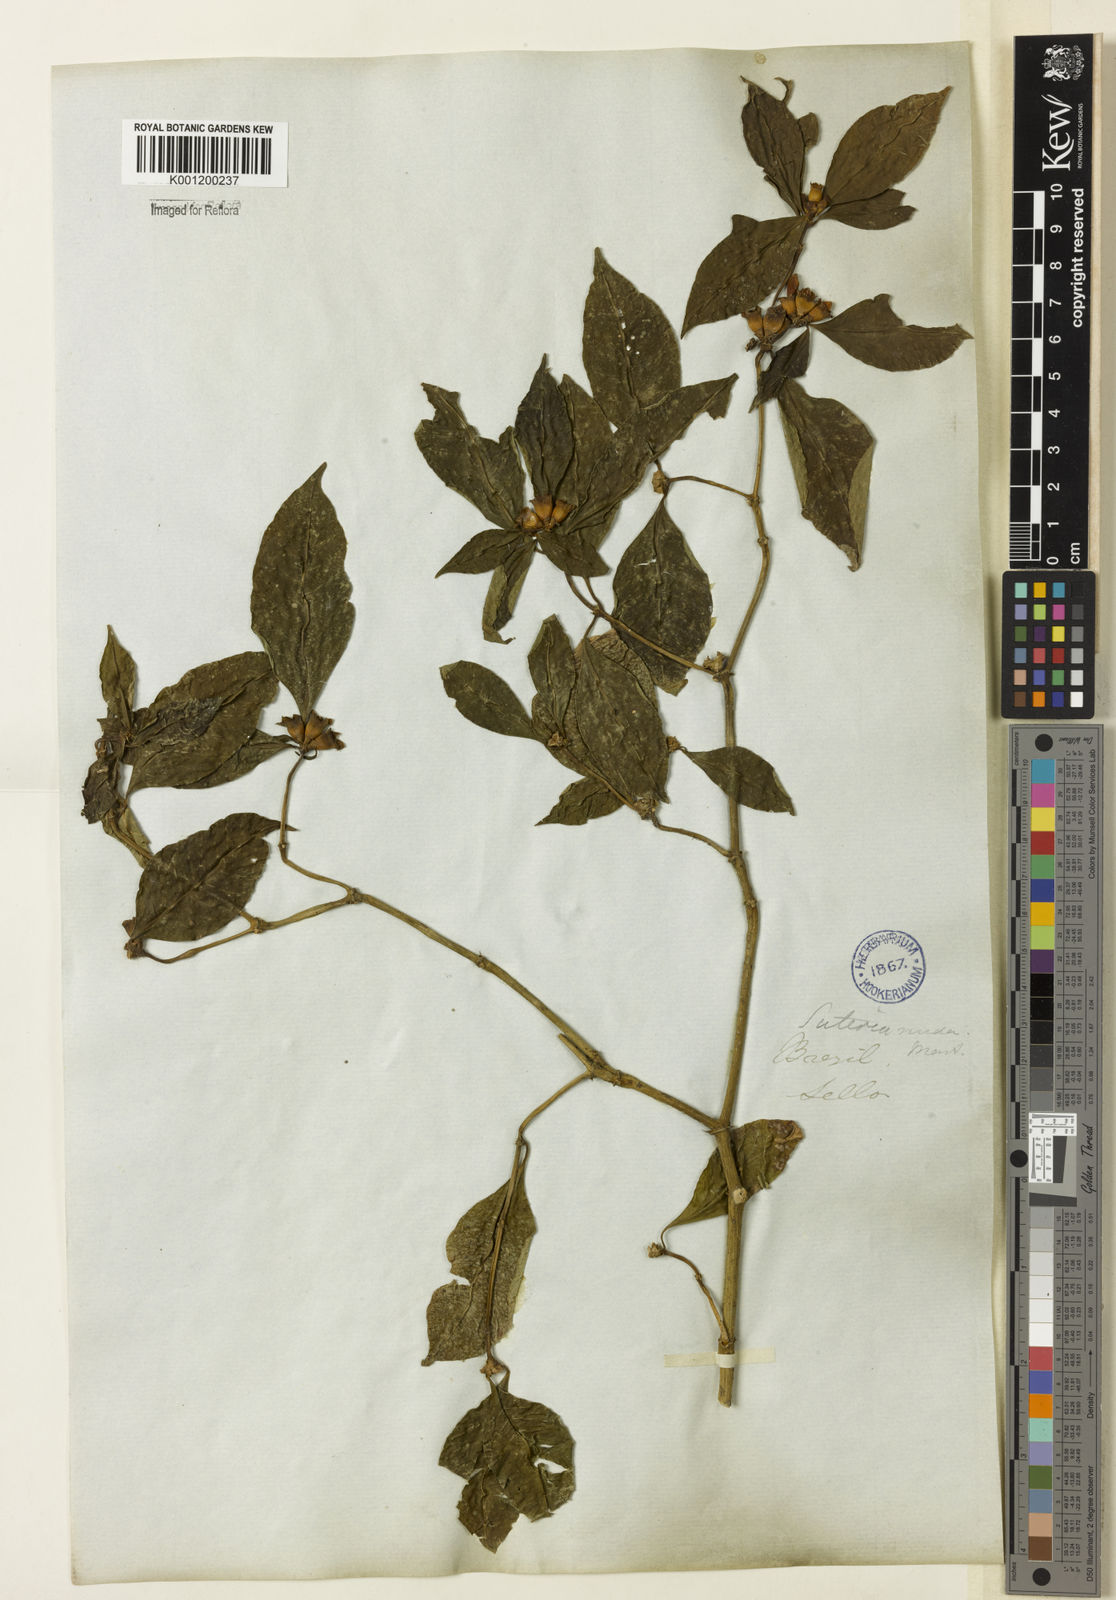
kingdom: Plantae
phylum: Tracheophyta
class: Magnoliopsida
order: Gentianales
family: Rubiaceae
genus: Psychotria
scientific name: Psychotria
